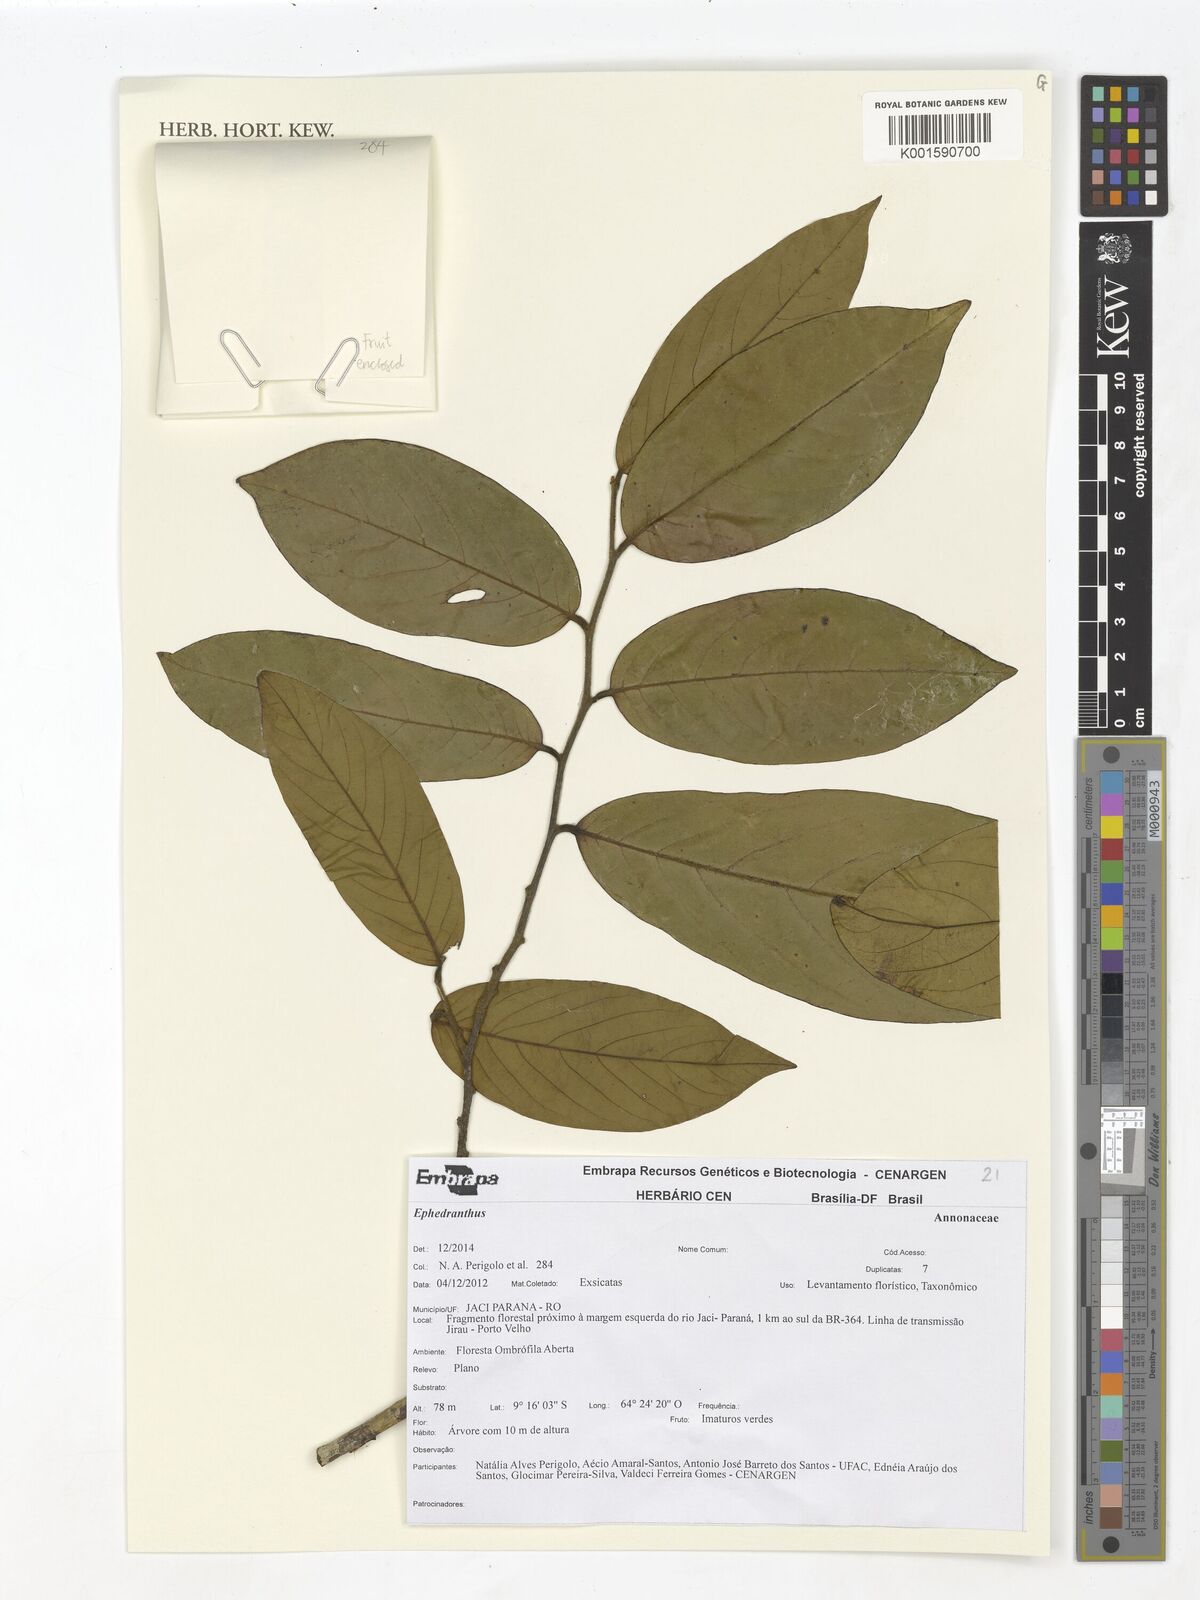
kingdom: Plantae
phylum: Tracheophyta
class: Magnoliopsida
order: Magnoliales
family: Annonaceae
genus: Ephedranthus
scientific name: Ephedranthus
